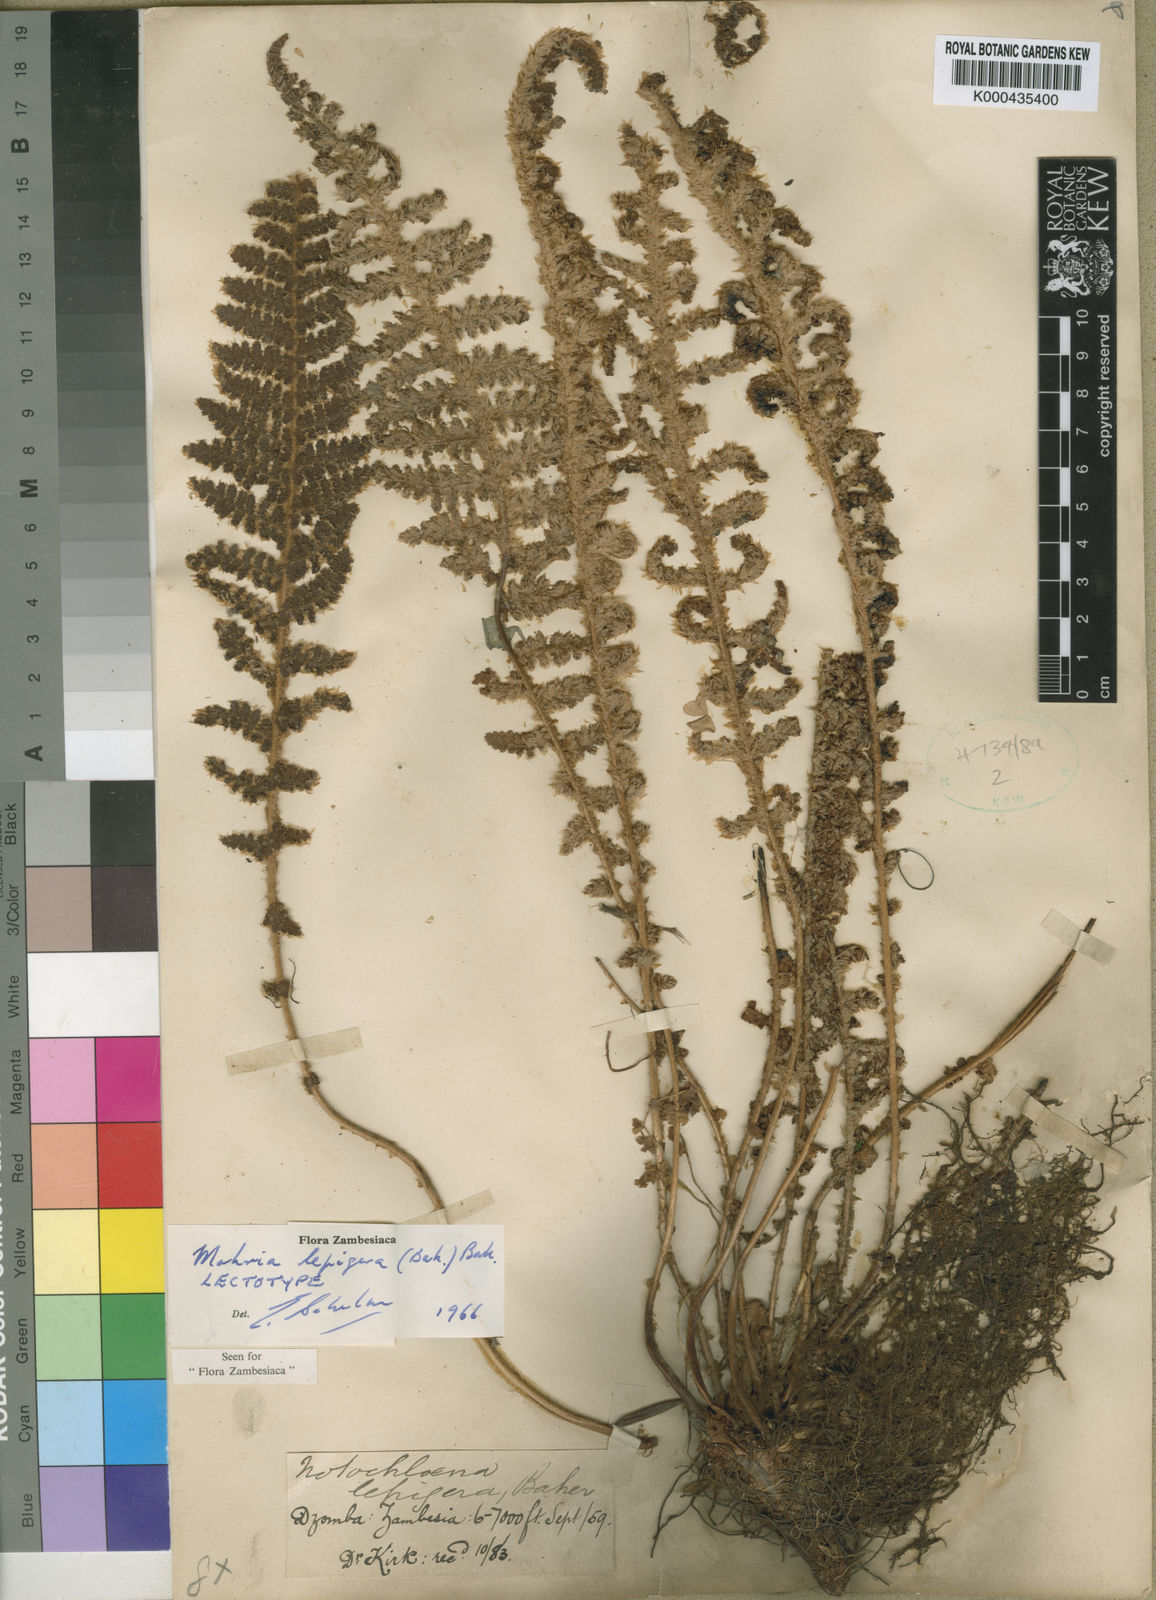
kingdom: Plantae
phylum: Tracheophyta
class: Polypodiopsida
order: Schizaeales
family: Anemiaceae
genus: Anemia
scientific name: Anemia lepigera
